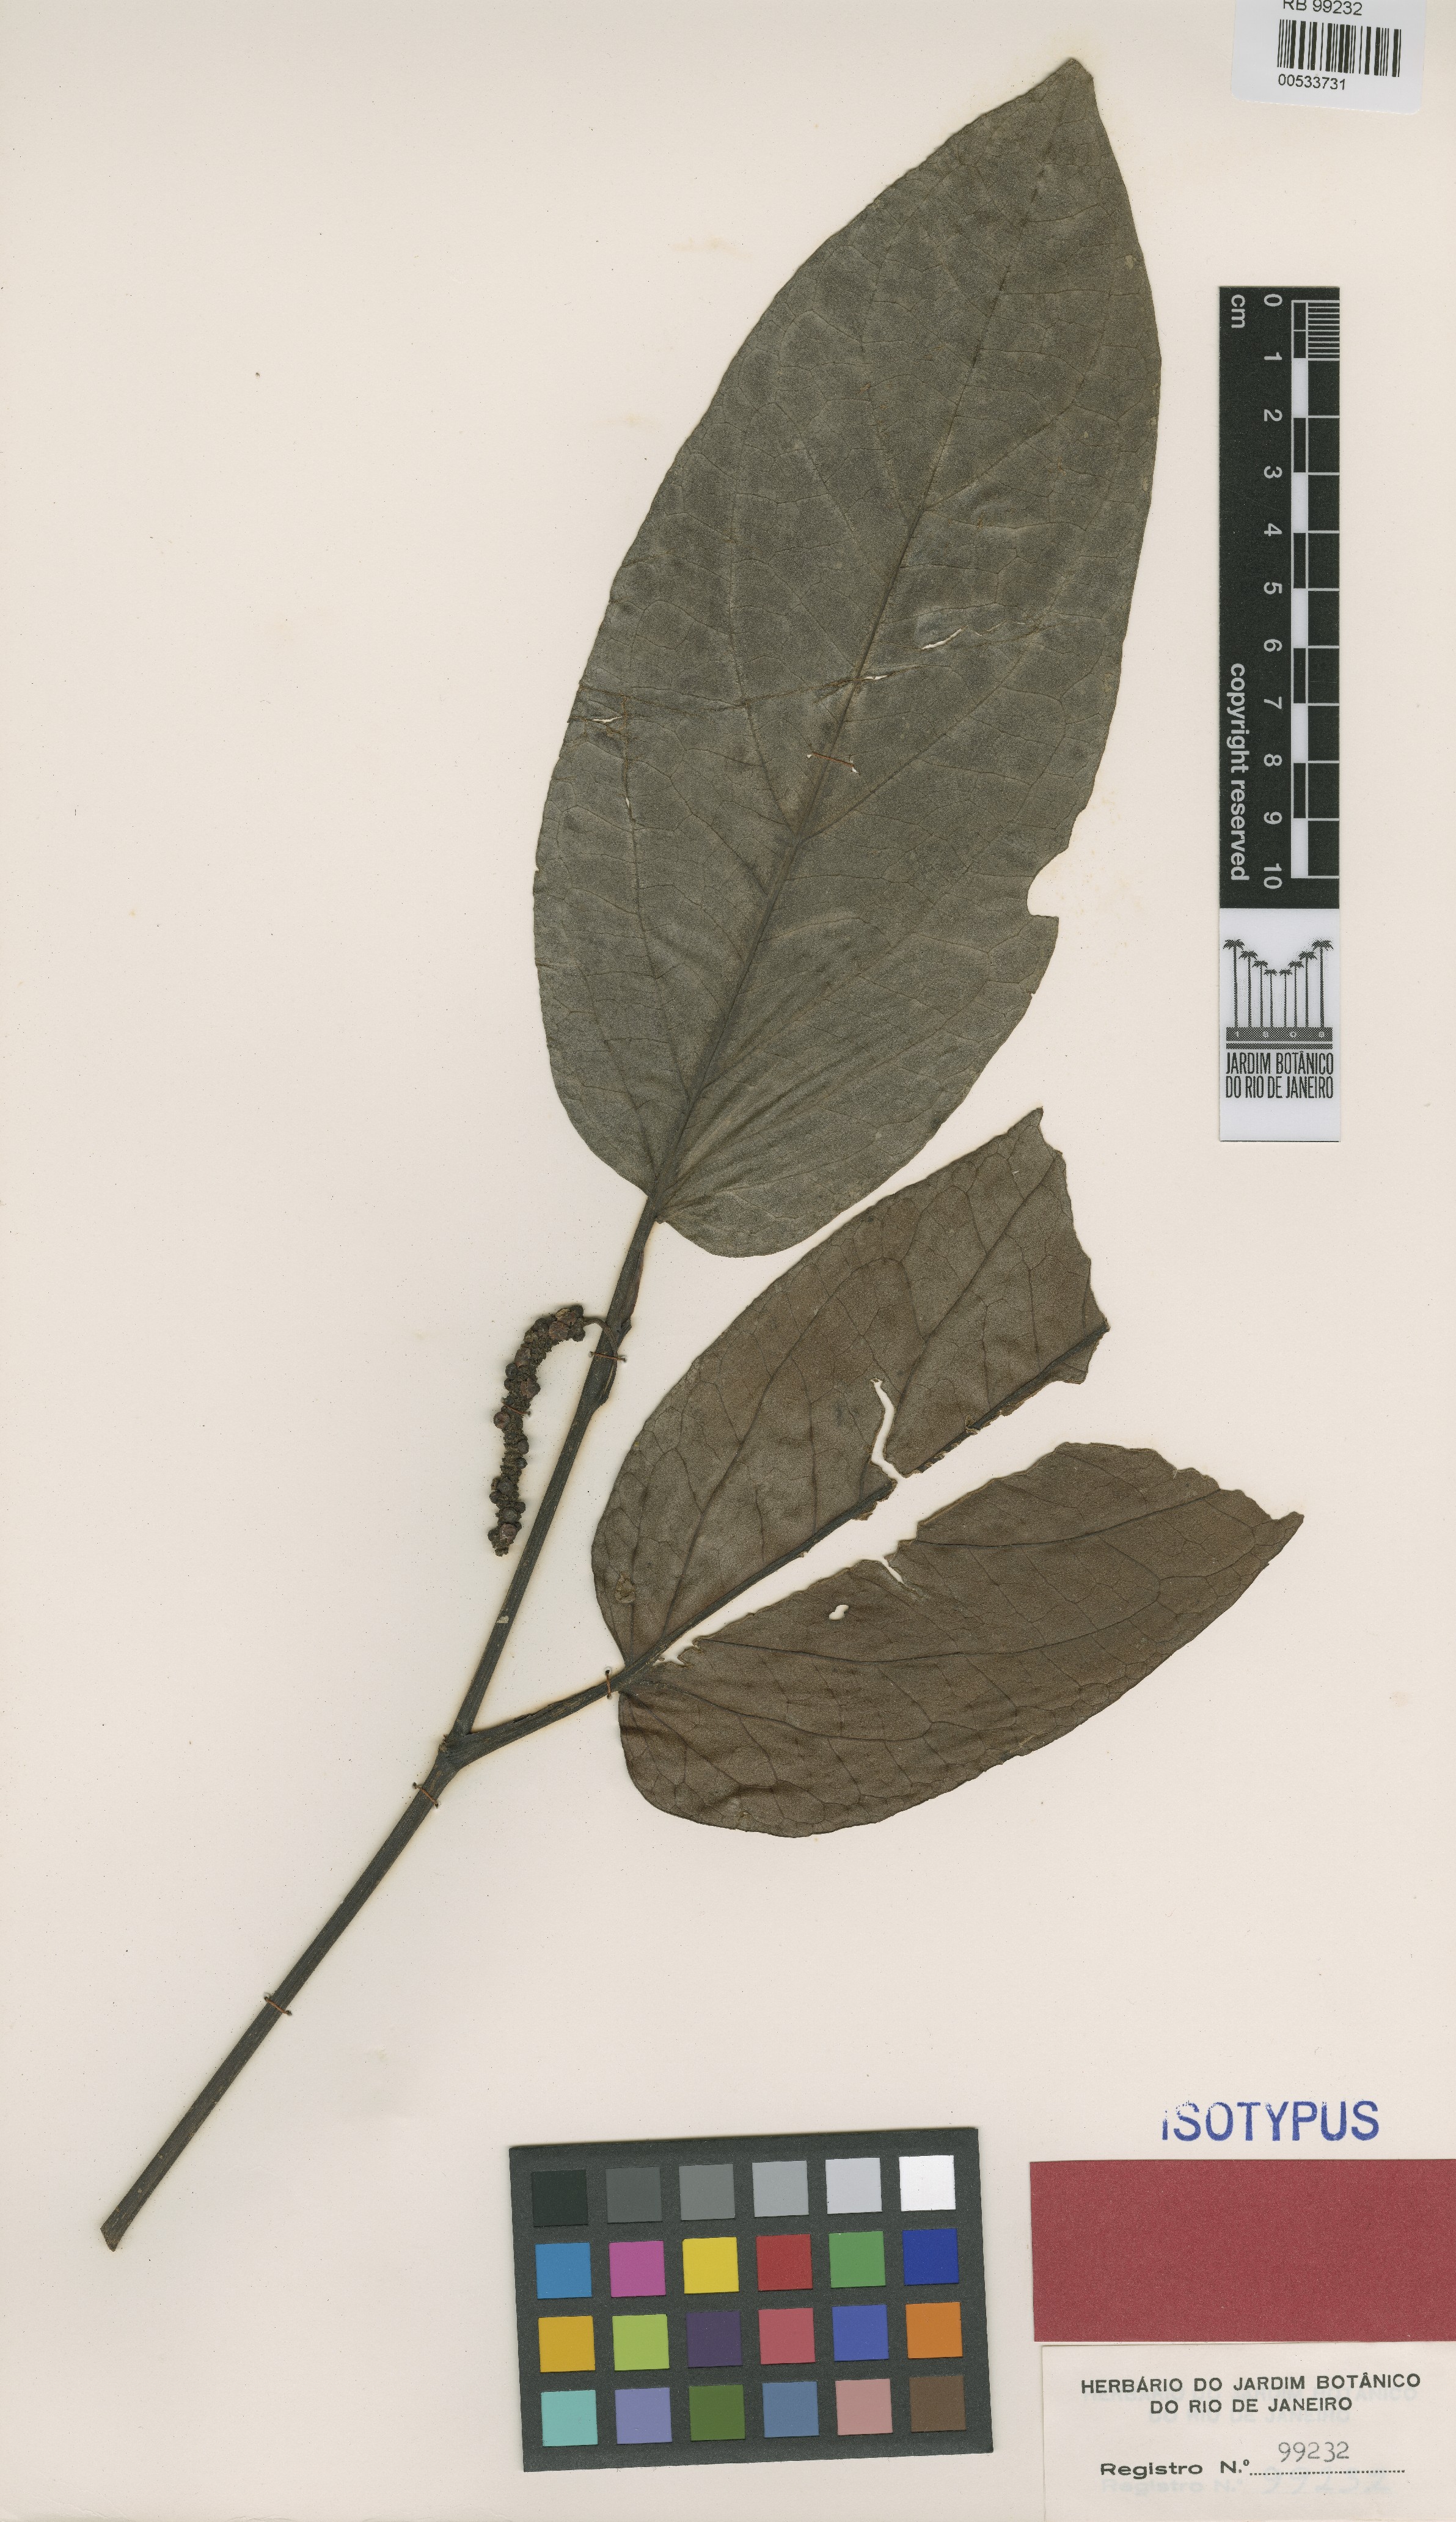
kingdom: Plantae
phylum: Tracheophyta
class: Magnoliopsida
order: Piperales
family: Piperaceae
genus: Piper
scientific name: Piper inaequale
